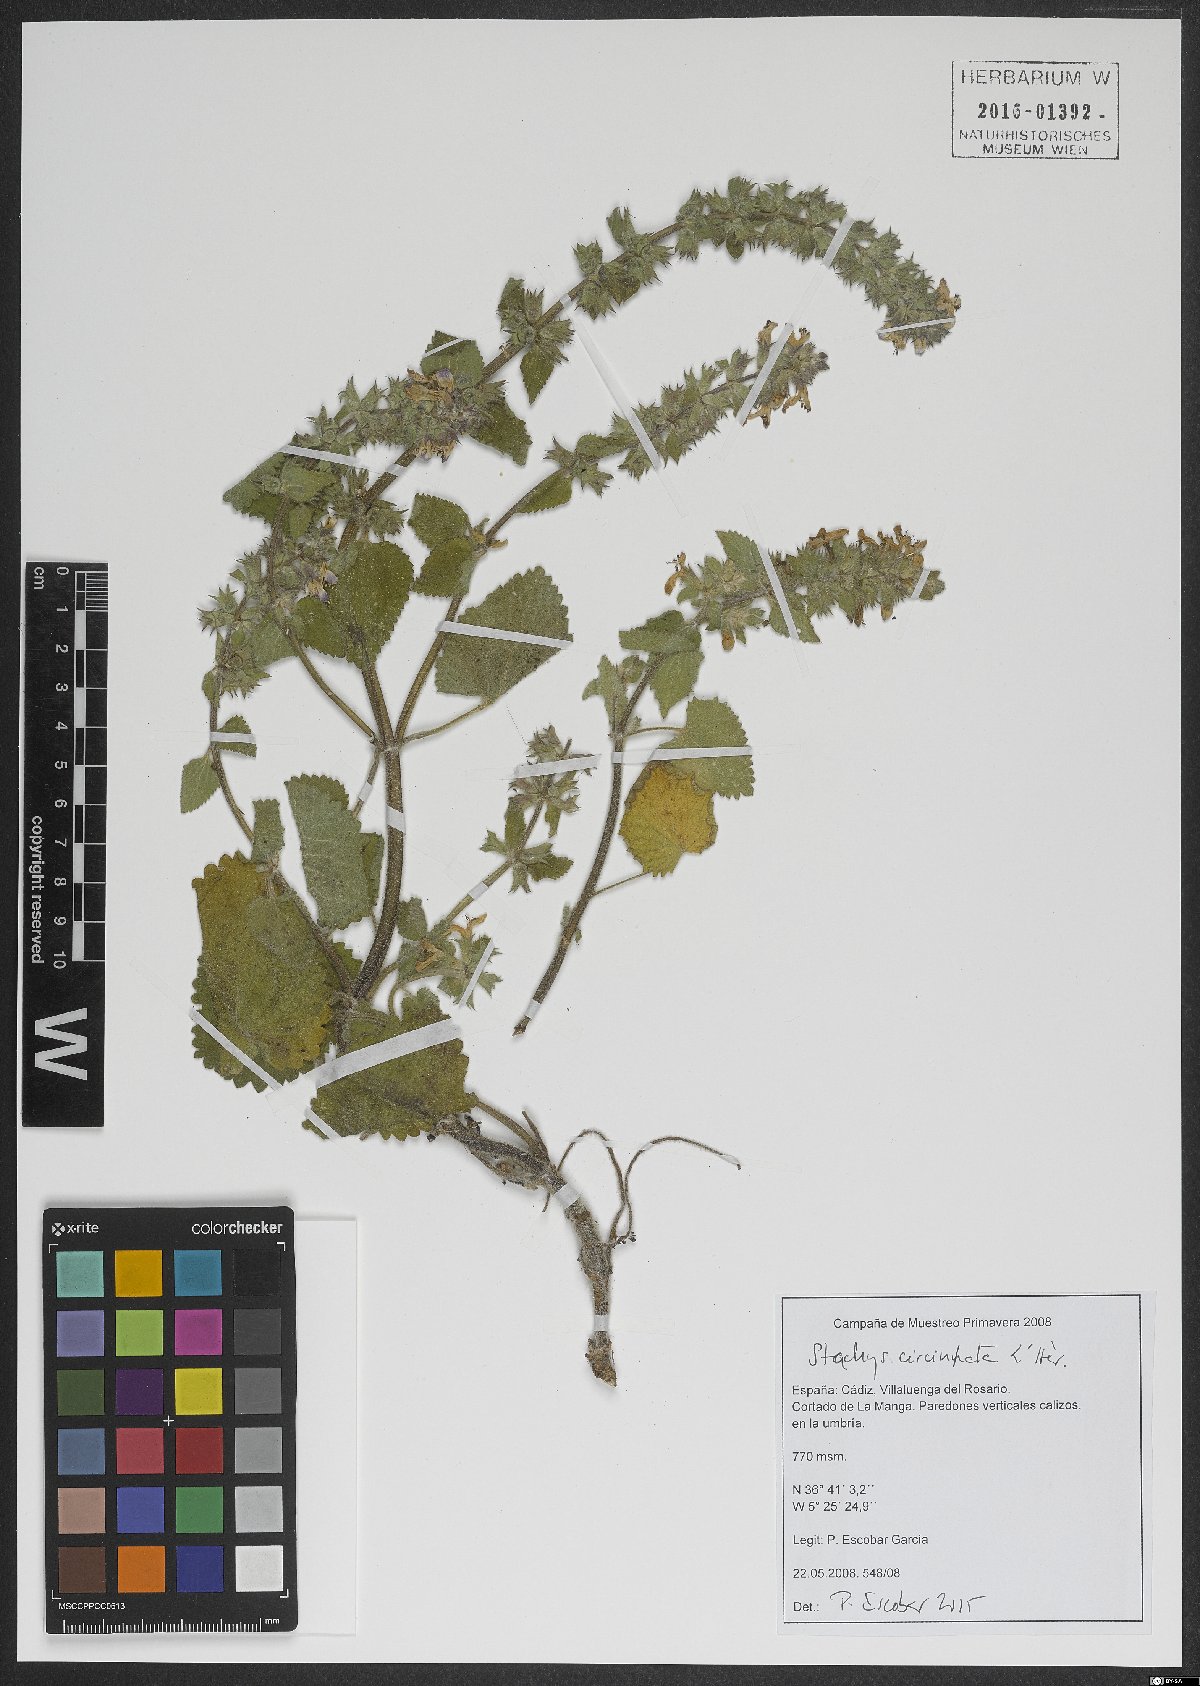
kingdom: Plantae
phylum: Tracheophyta
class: Magnoliopsida
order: Lamiales
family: Lamiaceae
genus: Stachys
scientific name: Stachys circinata
